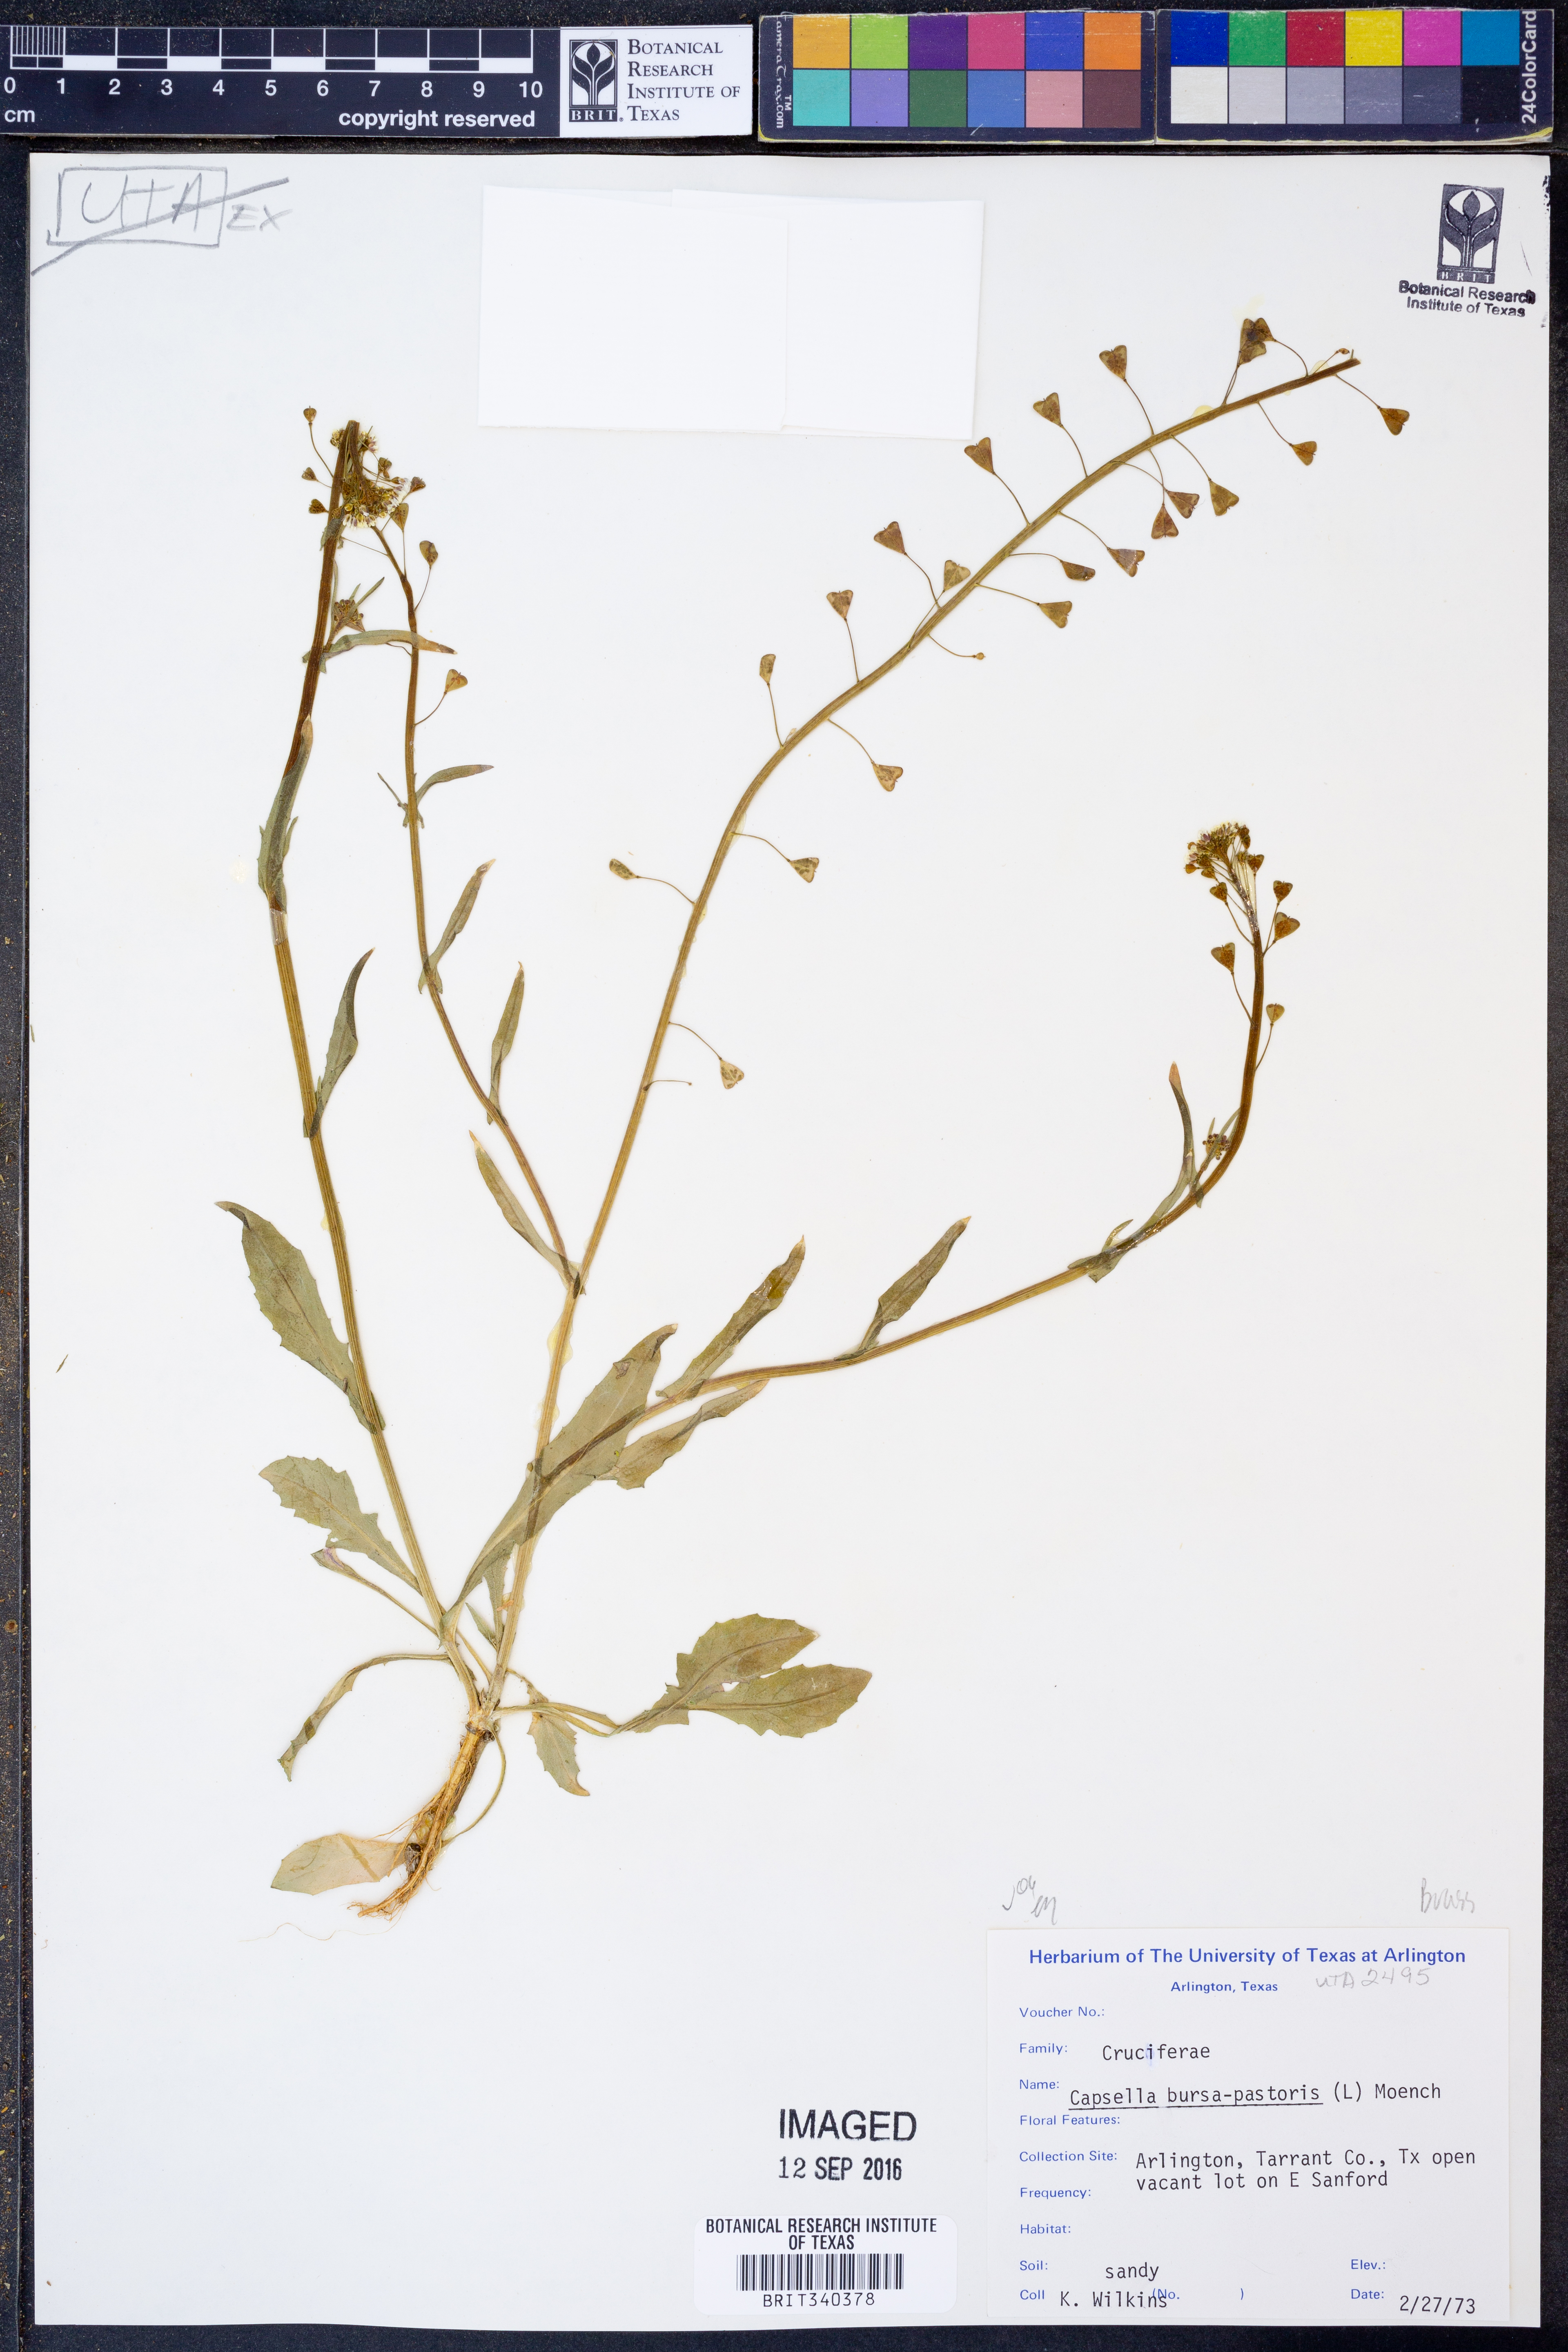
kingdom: Plantae
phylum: Tracheophyta
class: Magnoliopsida
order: Brassicales
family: Brassicaceae
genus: Capsella
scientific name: Capsella bursa-pastoris
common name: Shepherd's purse
